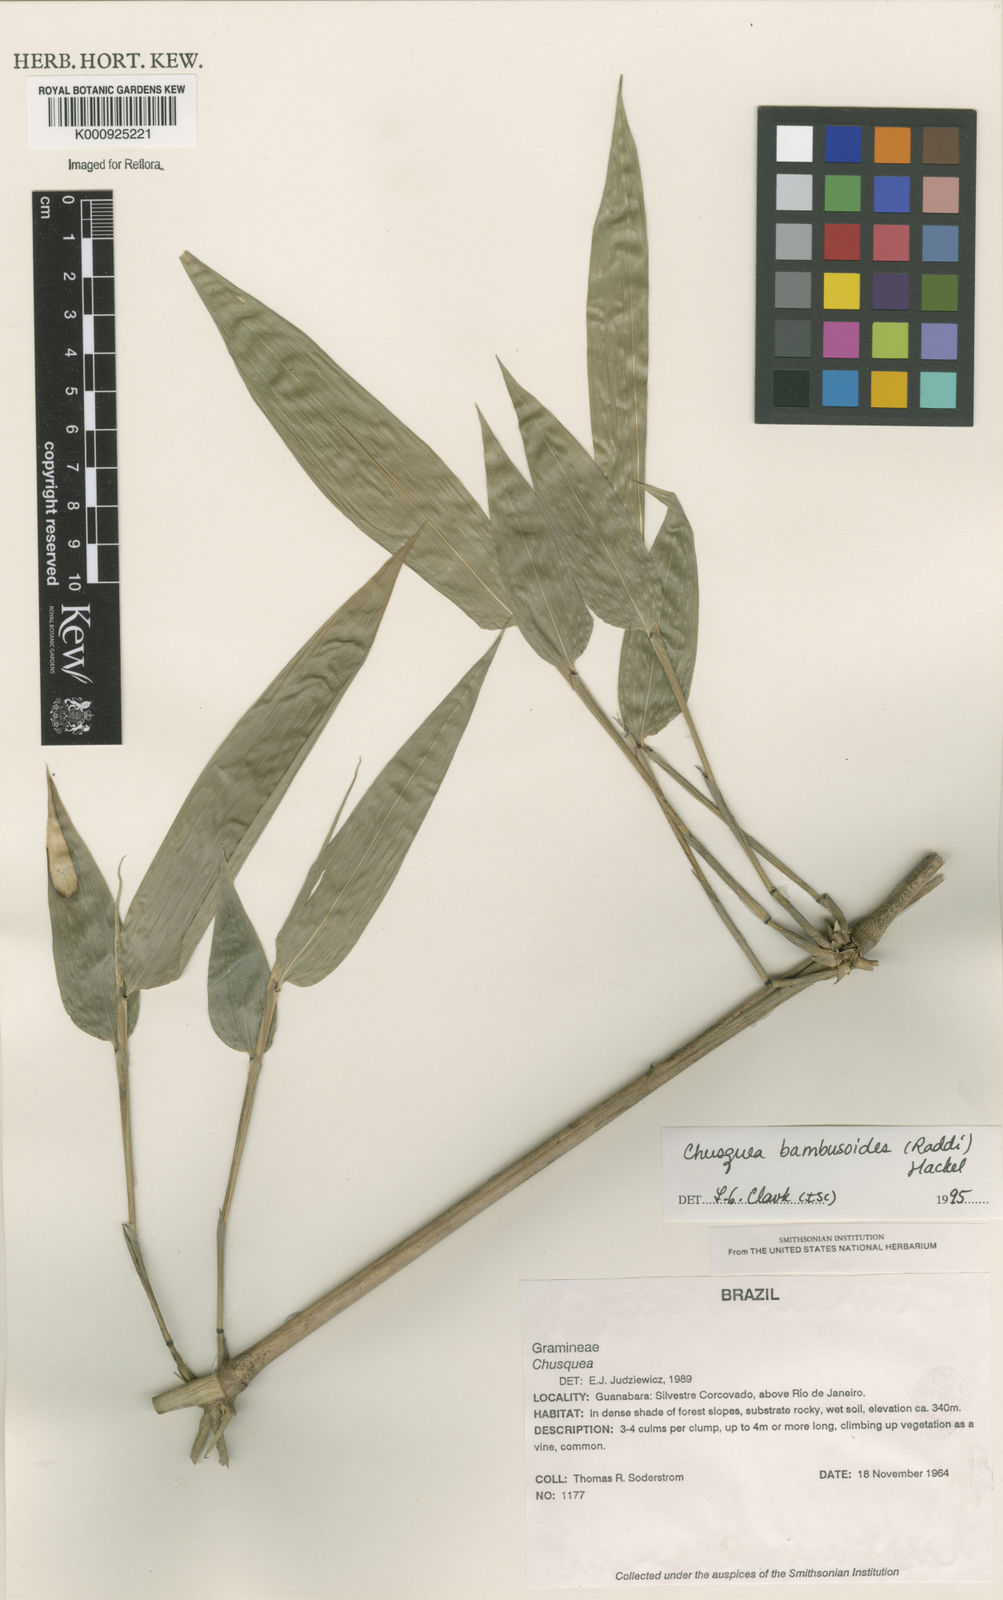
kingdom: Plantae
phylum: Tracheophyta
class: Liliopsida
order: Poales
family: Poaceae
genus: Chusquea
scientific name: Chusquea bambusoides
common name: Brazil scrambling bamboo
